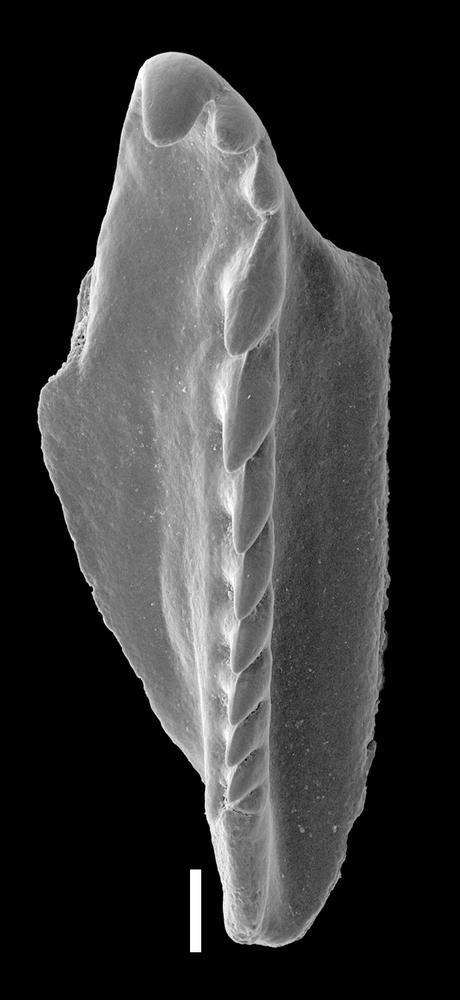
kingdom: Animalia
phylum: Annelida
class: Polychaeta
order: Eunicida
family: Polychaetaspidae
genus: Oenonites
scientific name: Oenonites
